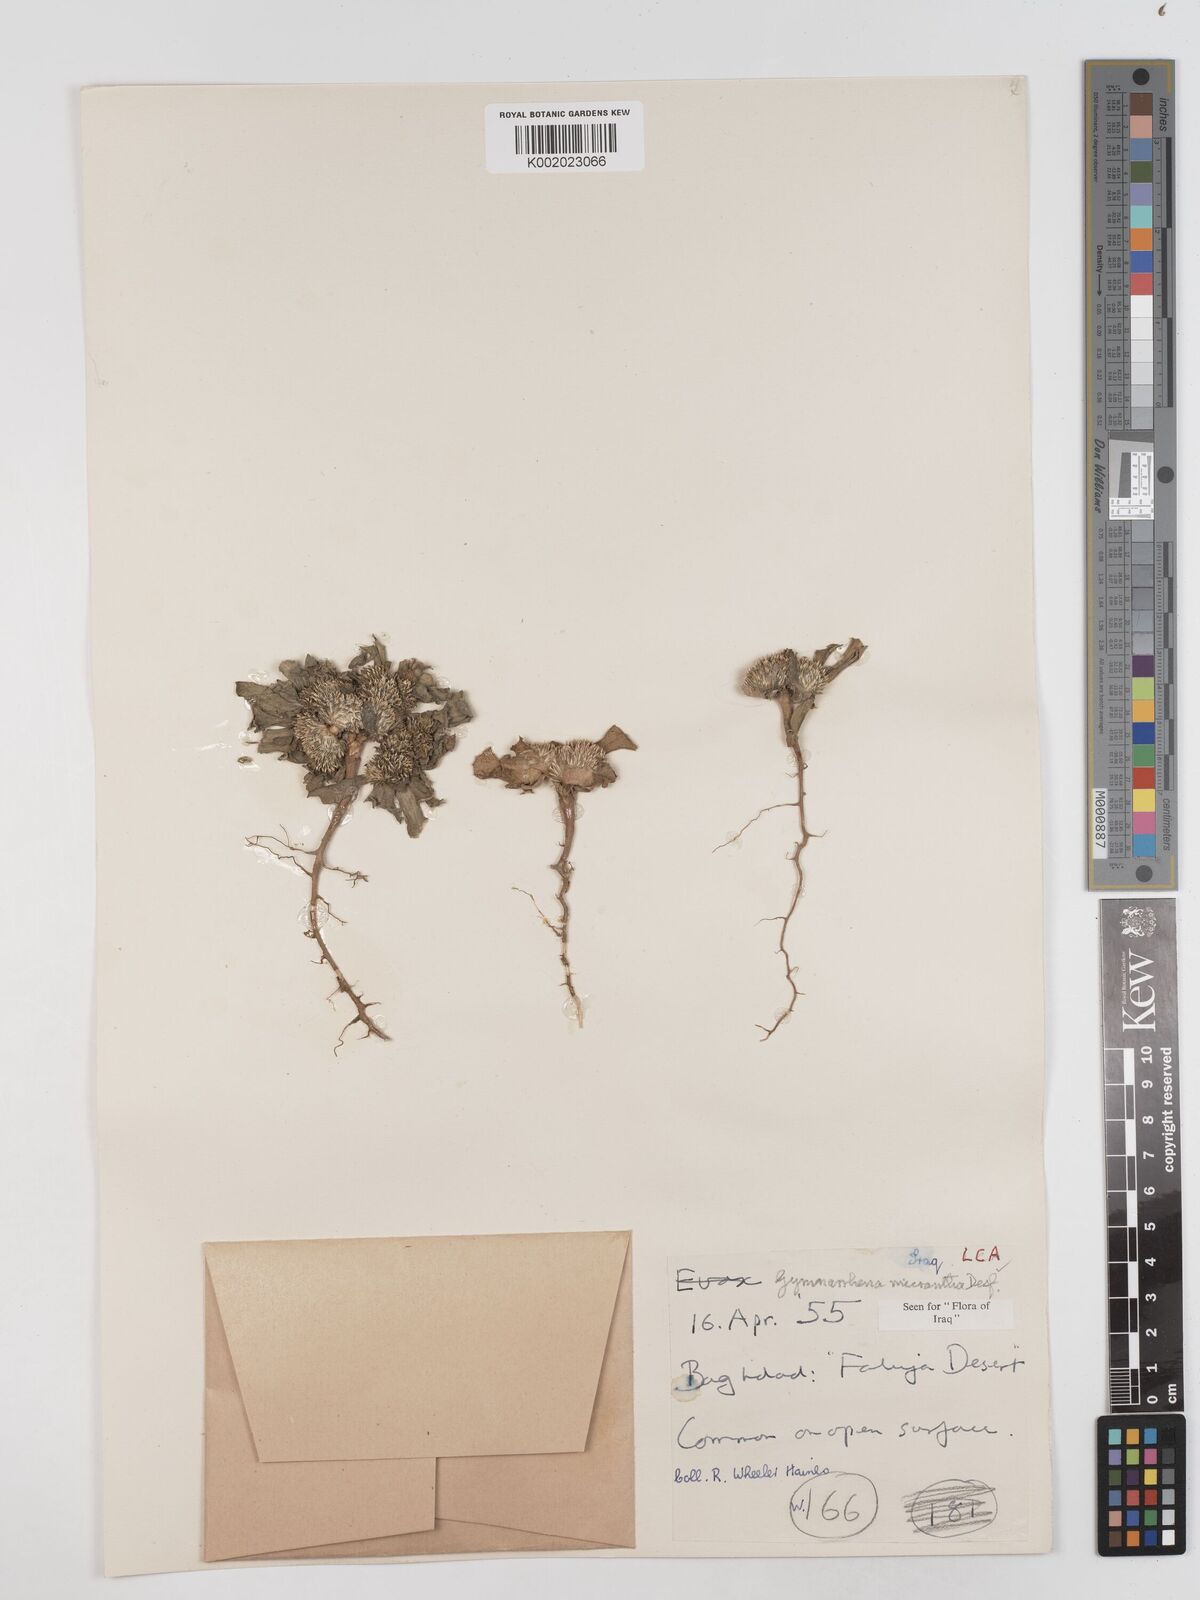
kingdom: Plantae
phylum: Tracheophyta
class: Magnoliopsida
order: Asterales
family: Asteraceae
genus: Gymnarrhena
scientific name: Gymnarrhena micrantha
